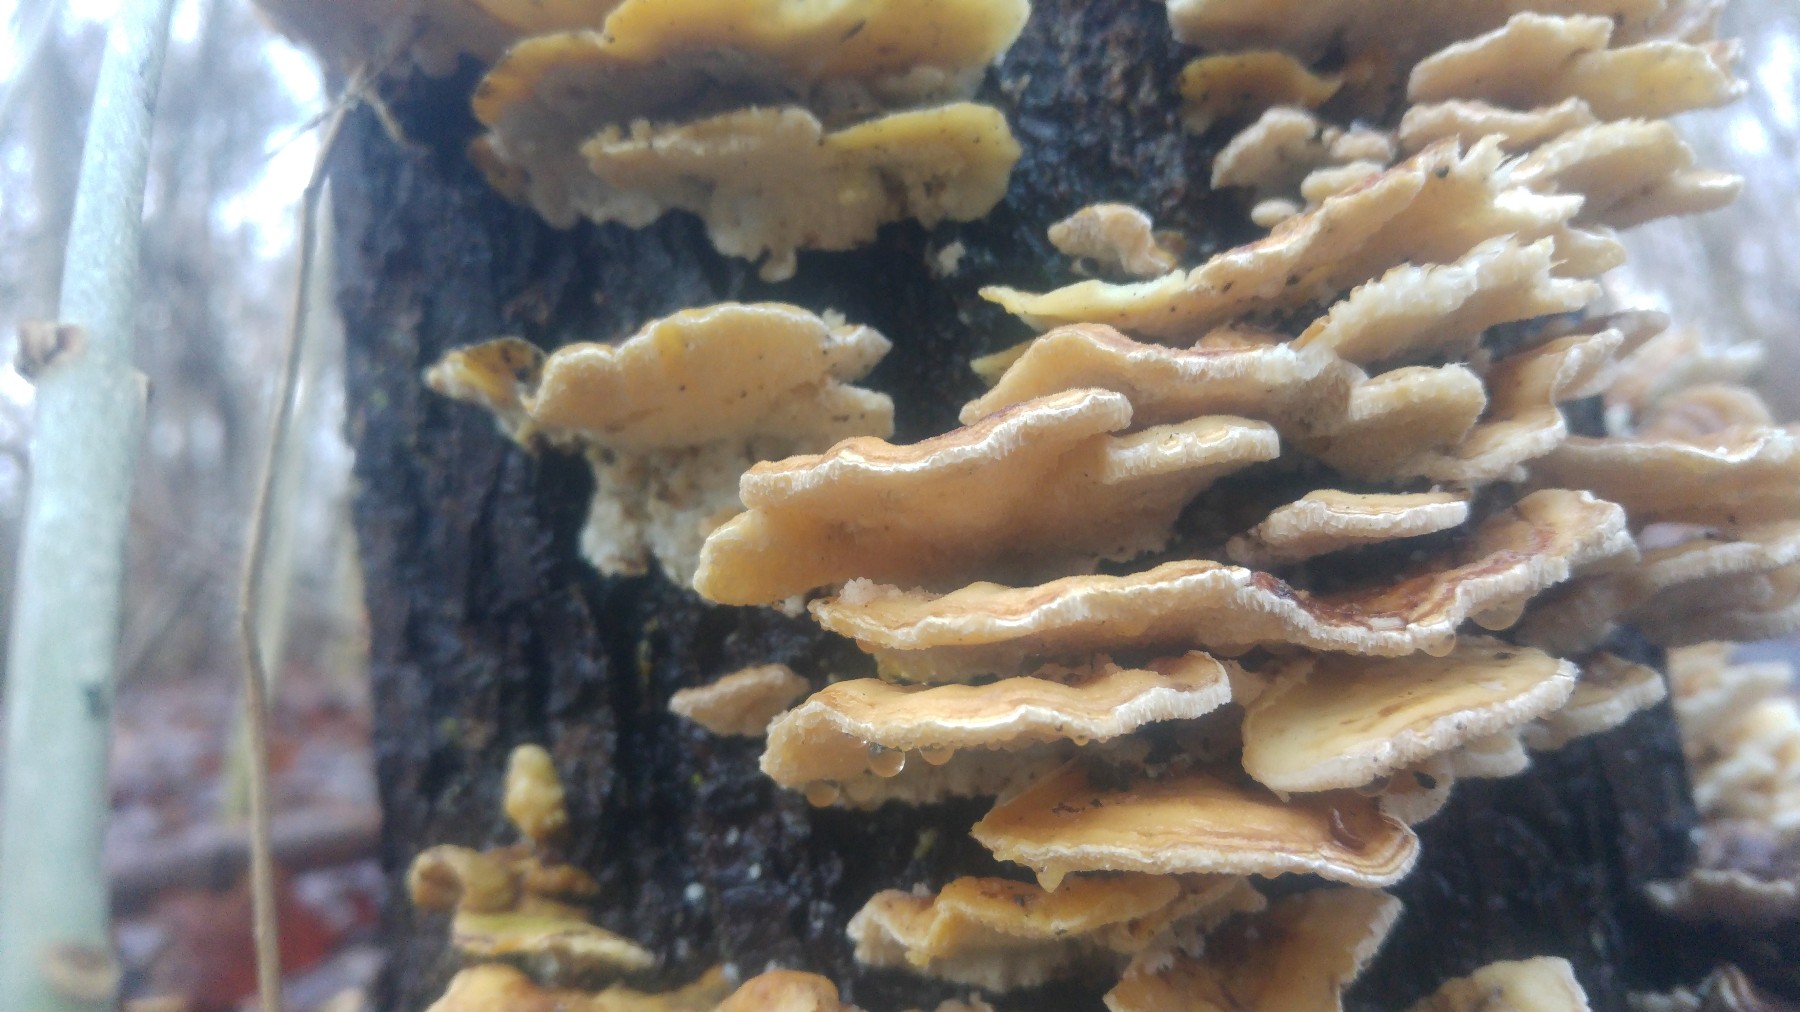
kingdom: Fungi
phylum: Basidiomycota
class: Agaricomycetes
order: Polyporales
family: Polyporaceae
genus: Trametes
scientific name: Trametes ochracea
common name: bæltet læderporesvamp
